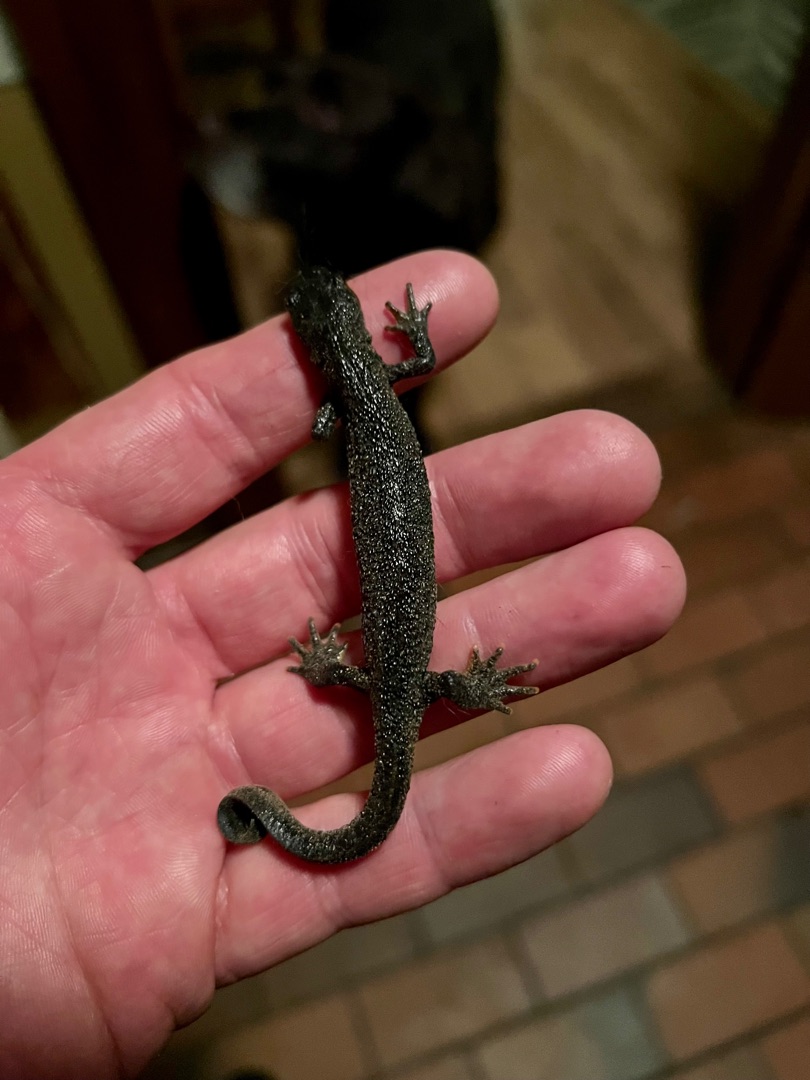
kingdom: Animalia
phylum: Chordata
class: Amphibia
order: Caudata
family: Salamandridae
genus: Triturus
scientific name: Triturus cristatus
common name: Stor vandsalamander
